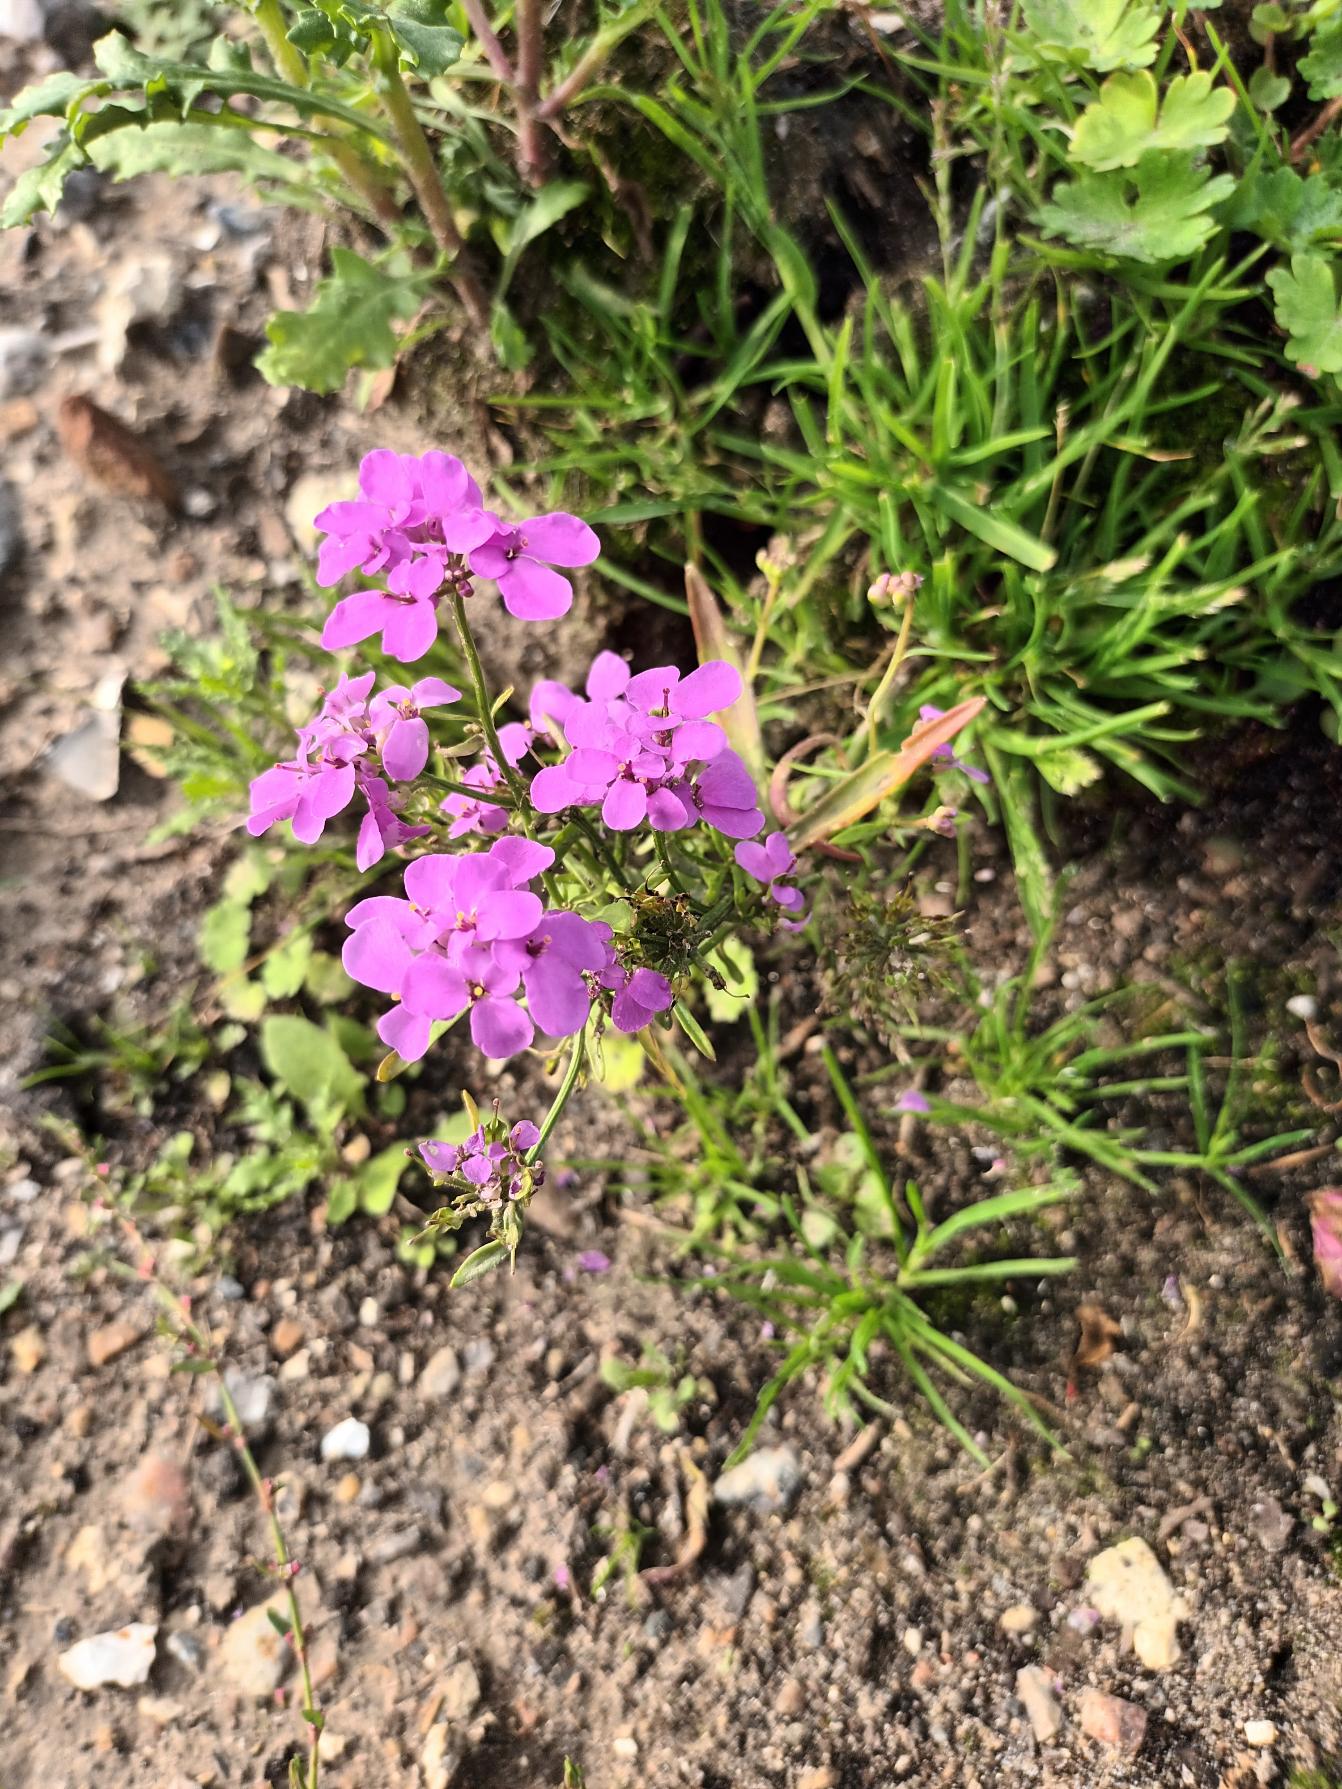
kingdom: Plantae
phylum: Tracheophyta
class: Magnoliopsida
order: Brassicales
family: Brassicaceae
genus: Iberis
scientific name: Iberis umbellata
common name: Skærm-sløjfeblomst
